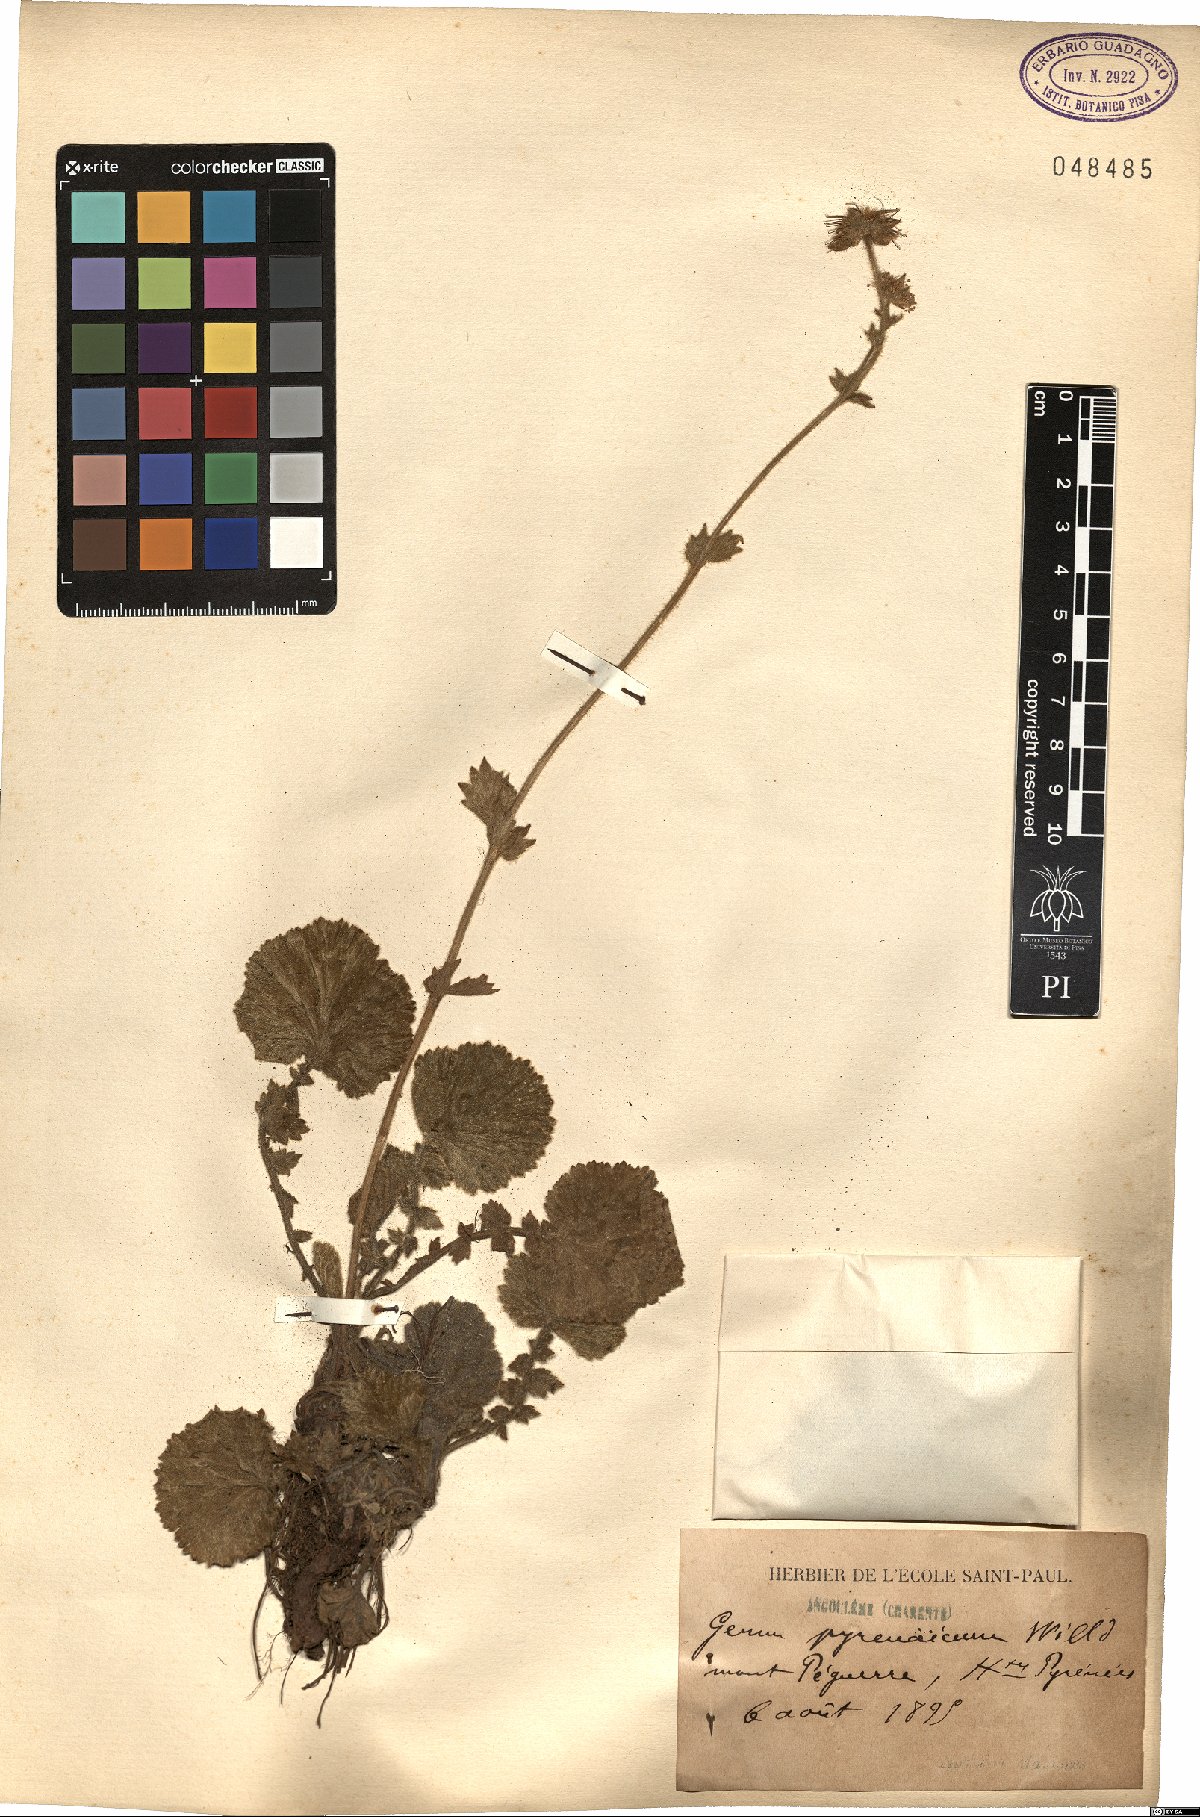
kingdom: Plantae
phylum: Tracheophyta
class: Magnoliopsida
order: Rosales
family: Rosaceae
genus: Geum
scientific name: Geum pyrenaicum
